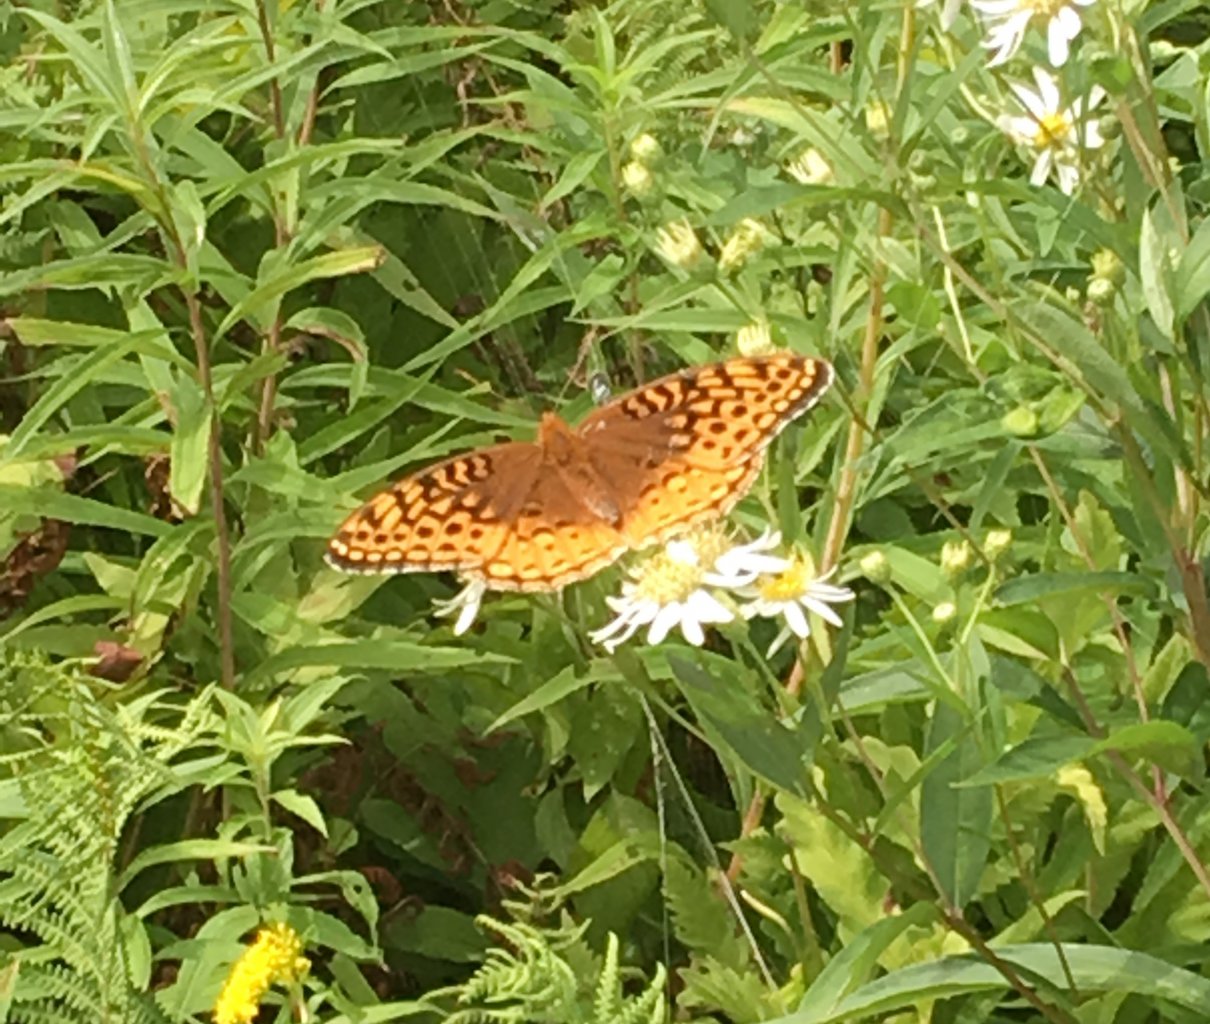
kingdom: Animalia
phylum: Arthropoda
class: Insecta
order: Lepidoptera
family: Nymphalidae
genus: Speyeria
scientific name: Speyeria atlantis
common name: Atlantis Fritillary
